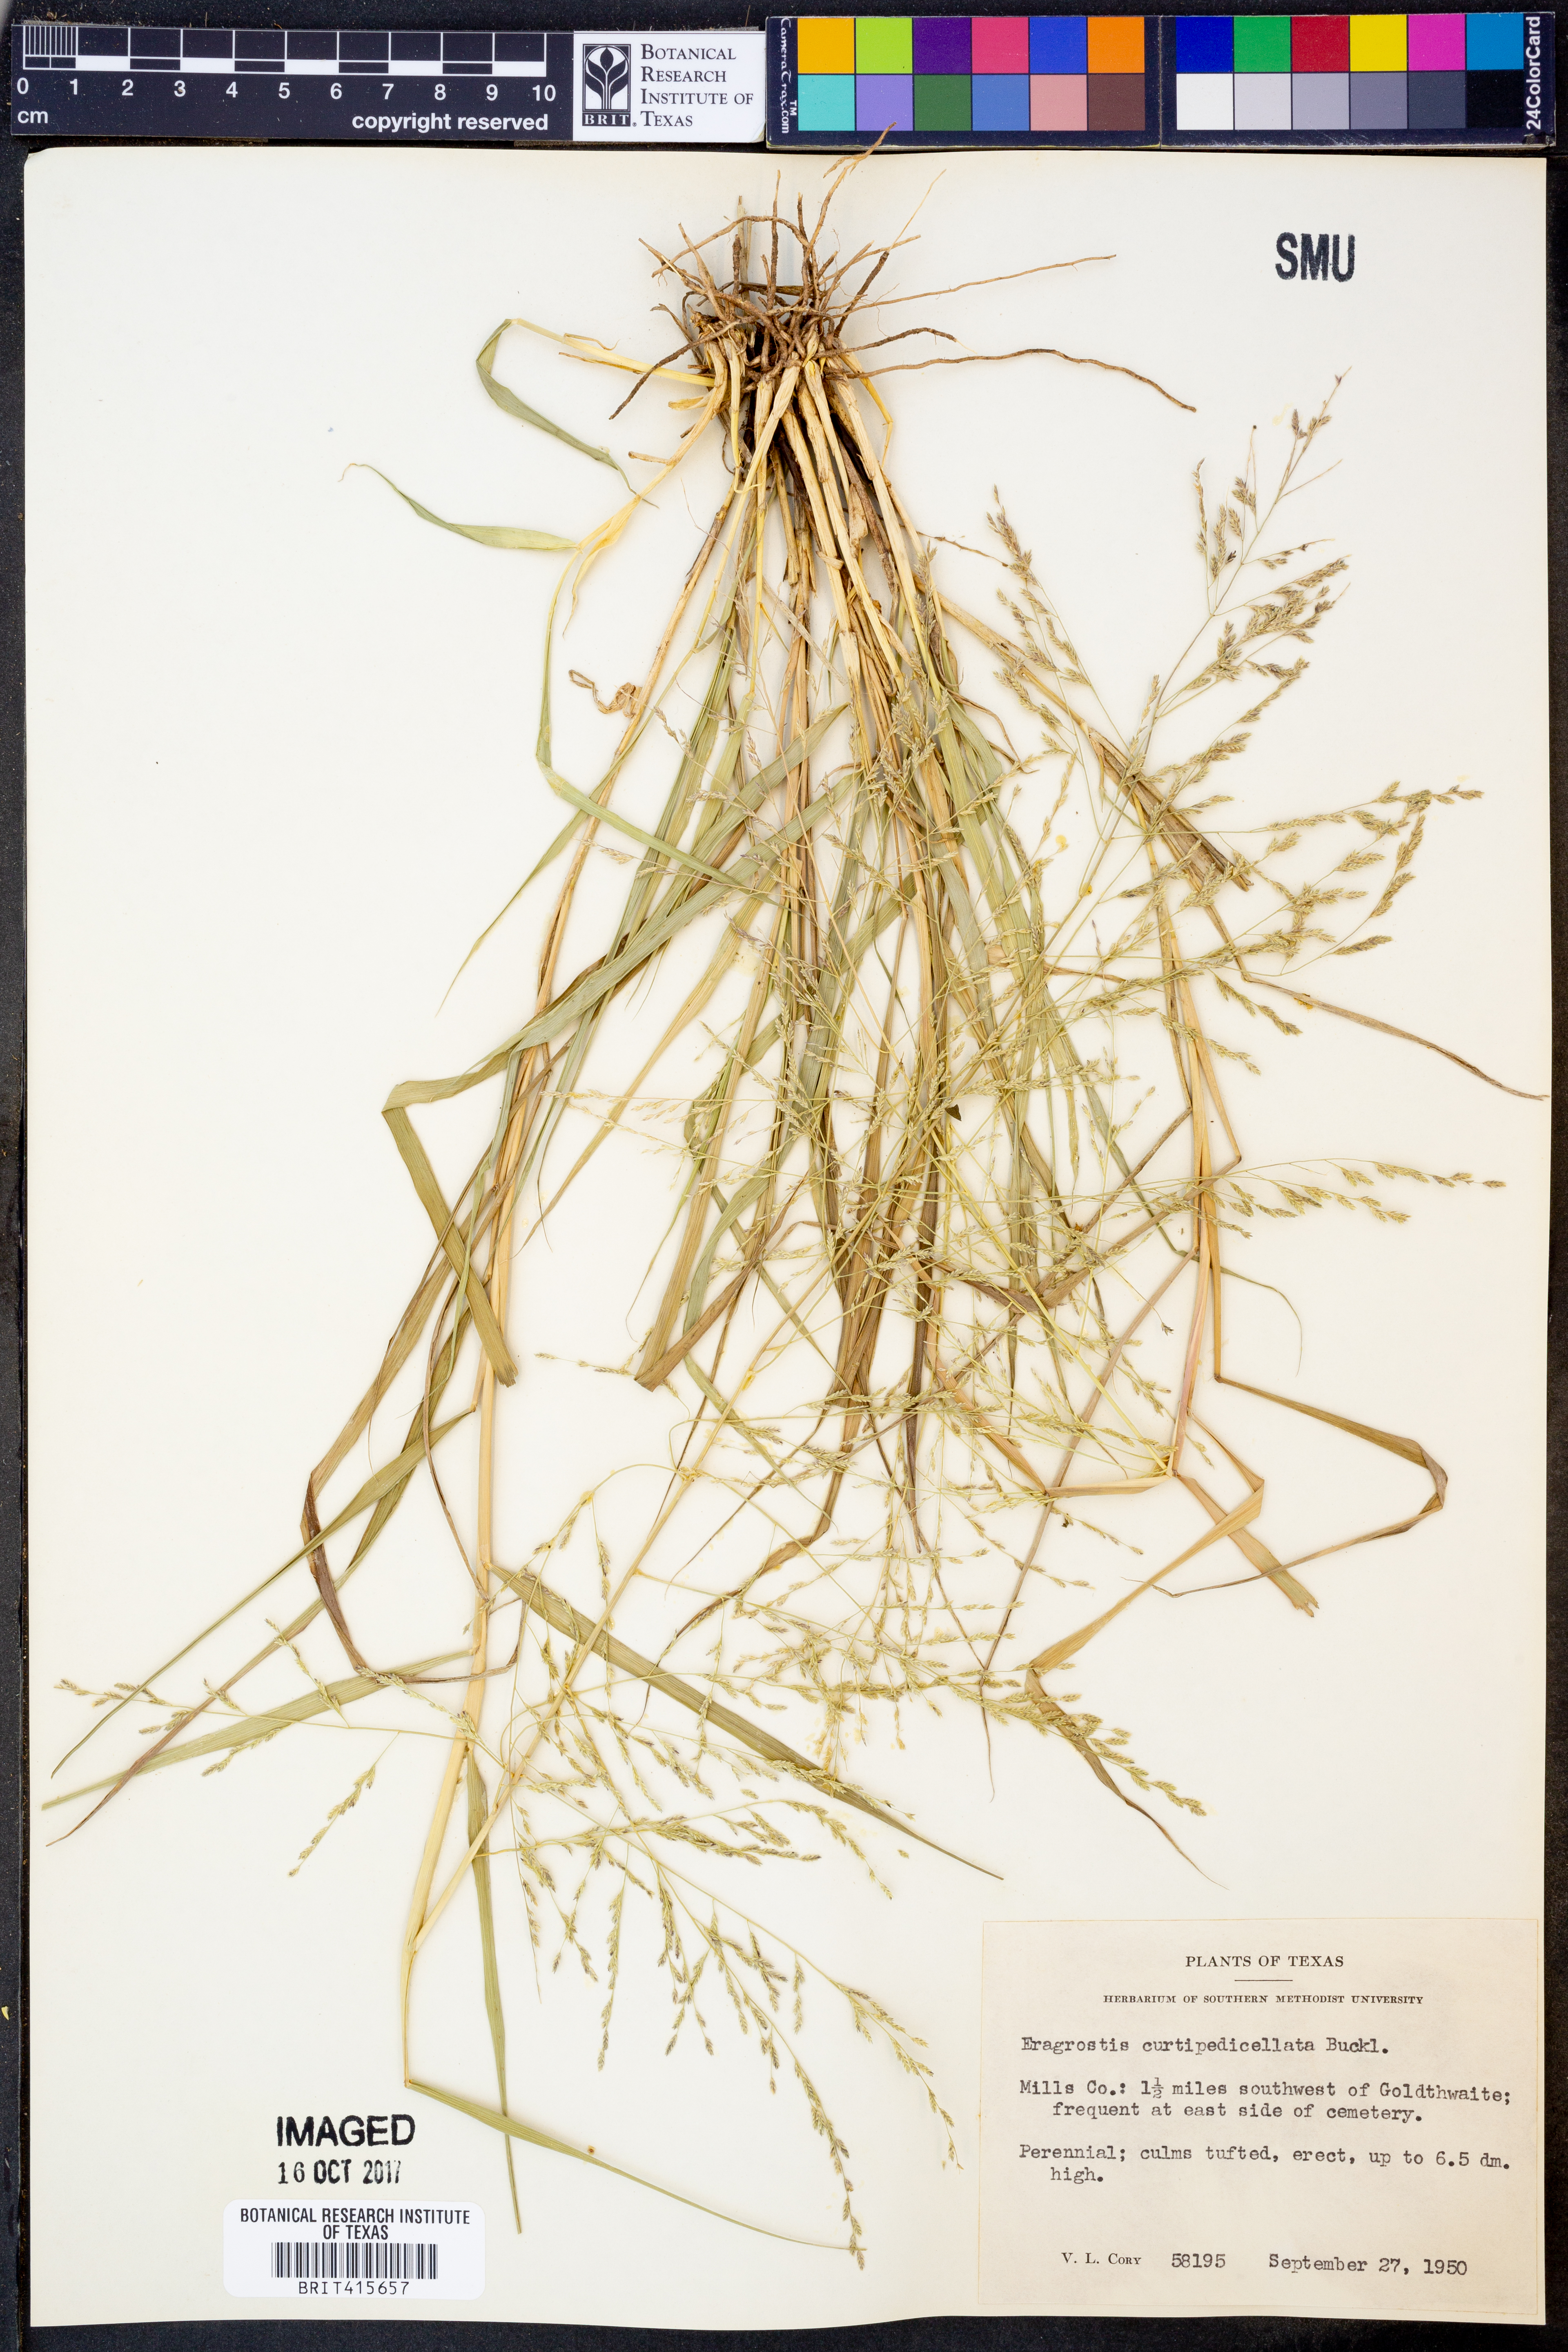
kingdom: Plantae
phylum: Tracheophyta
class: Liliopsida
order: Poales
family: Poaceae
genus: Eragrostis
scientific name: Eragrostis curtipedicellata
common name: Gummy love grass
